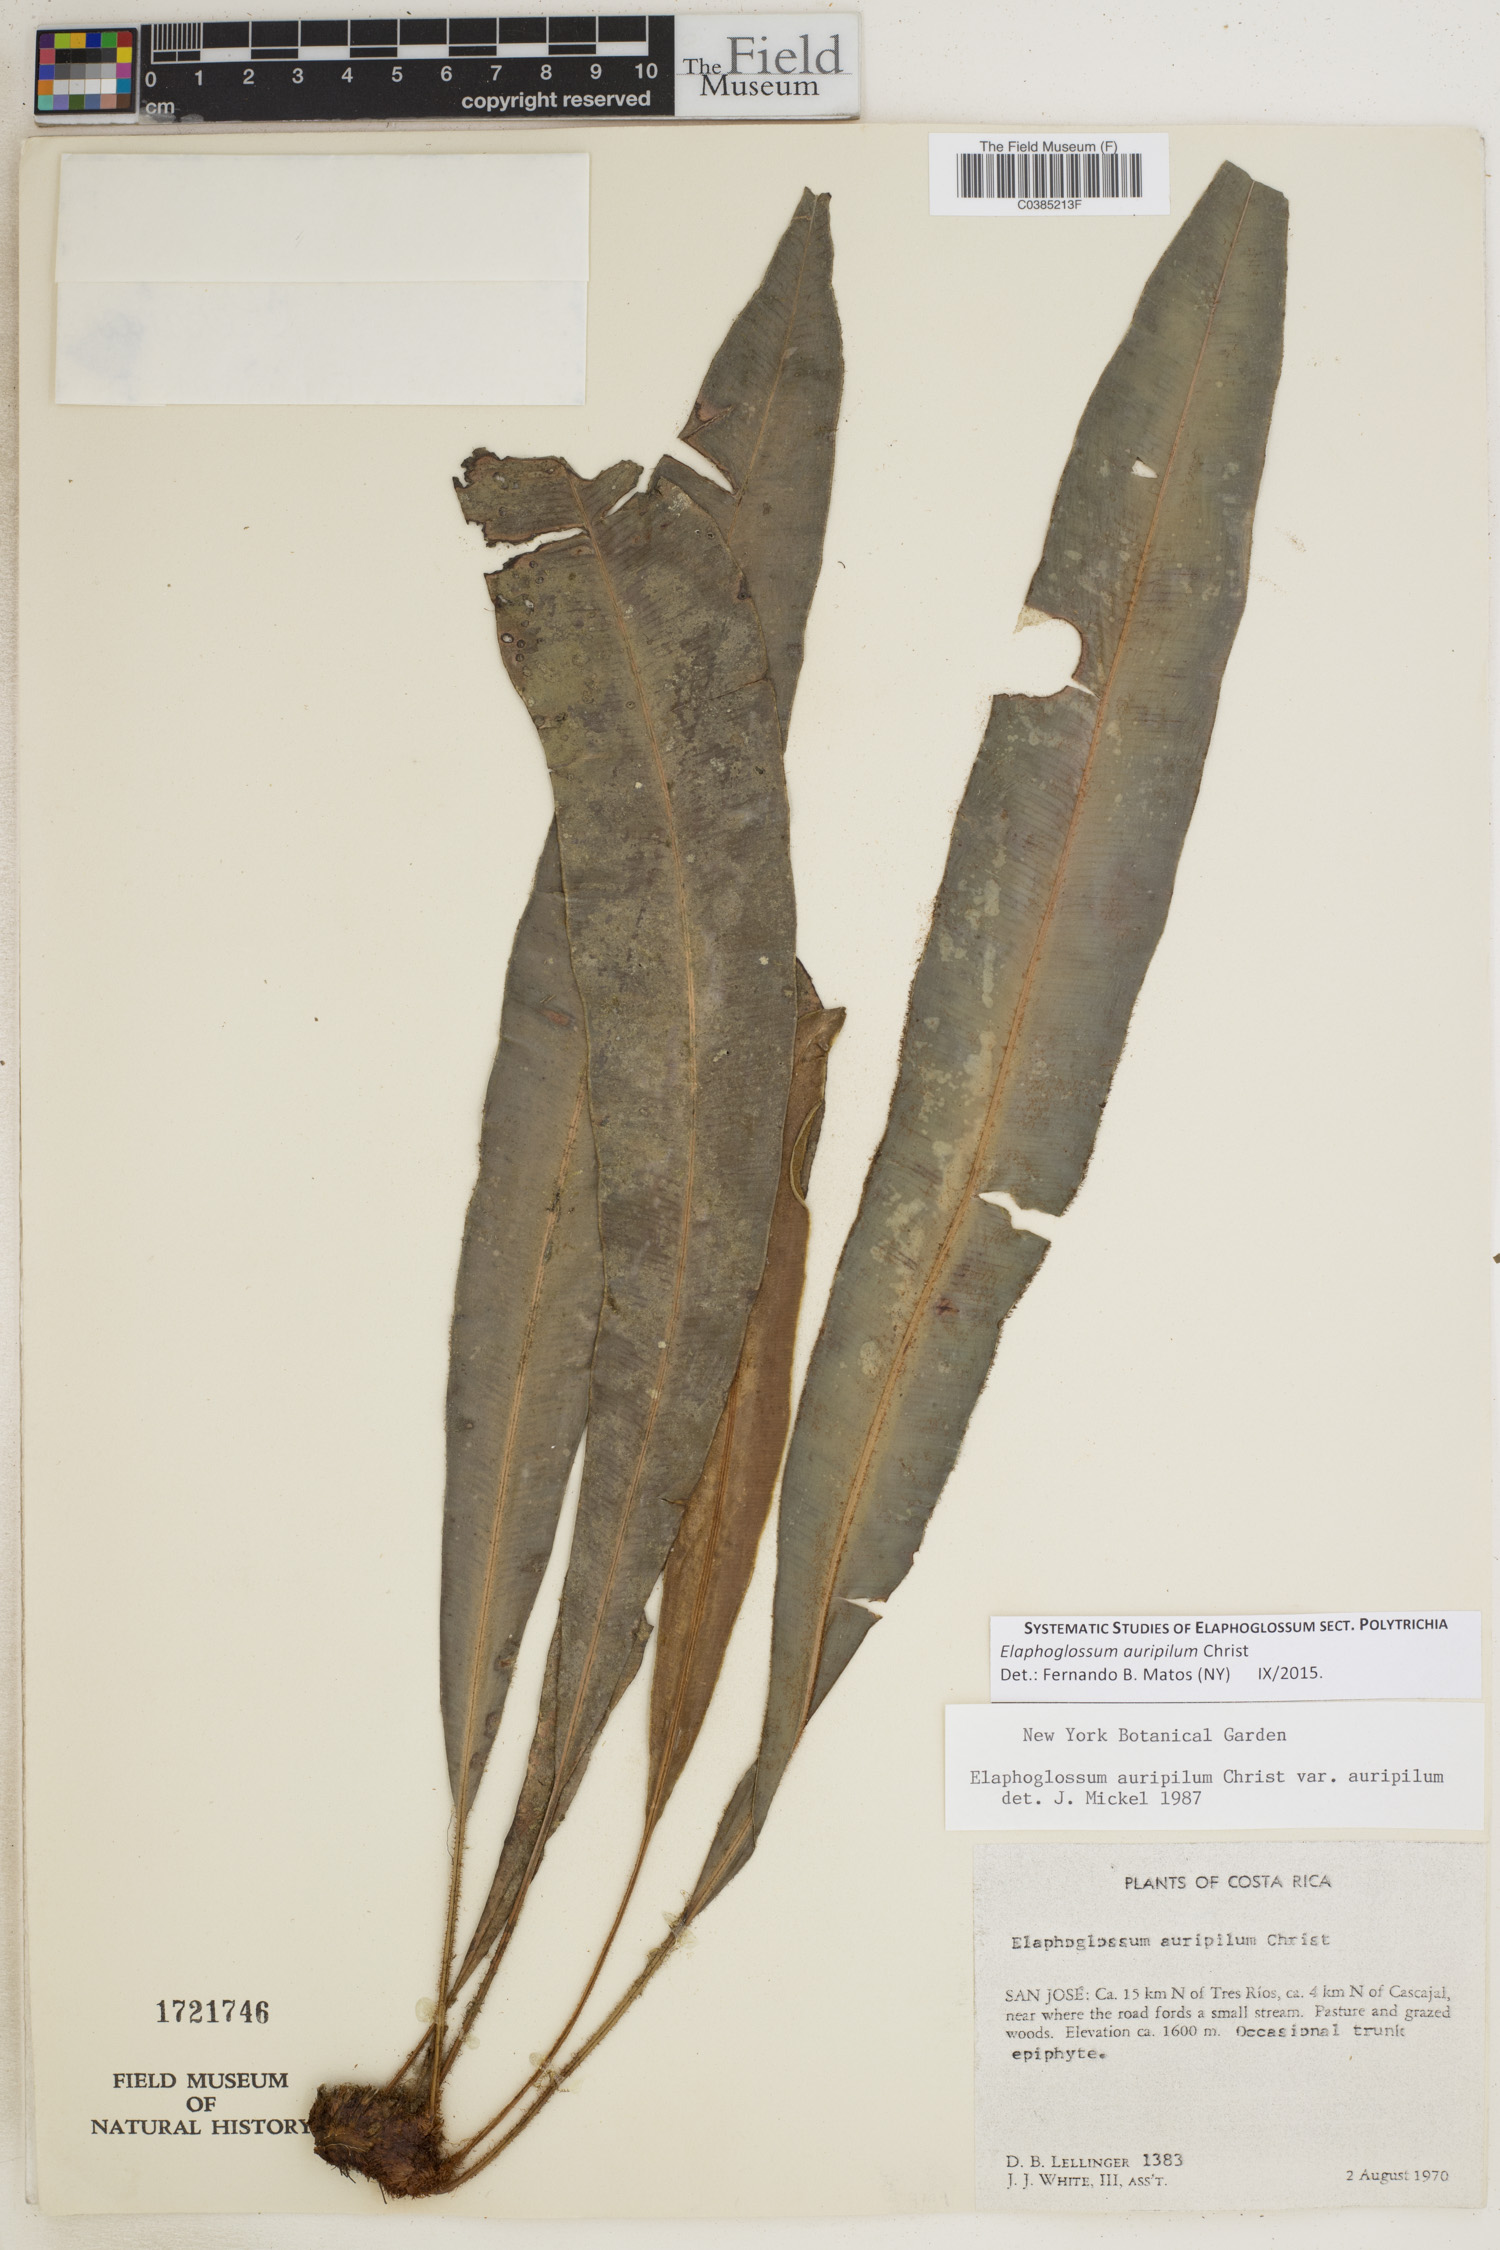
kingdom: Plantae
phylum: Tracheophyta
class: Polypodiopsida
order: Polypodiales
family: Dryopteridaceae
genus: Elaphoglossum
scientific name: Elaphoglossum auripilum
